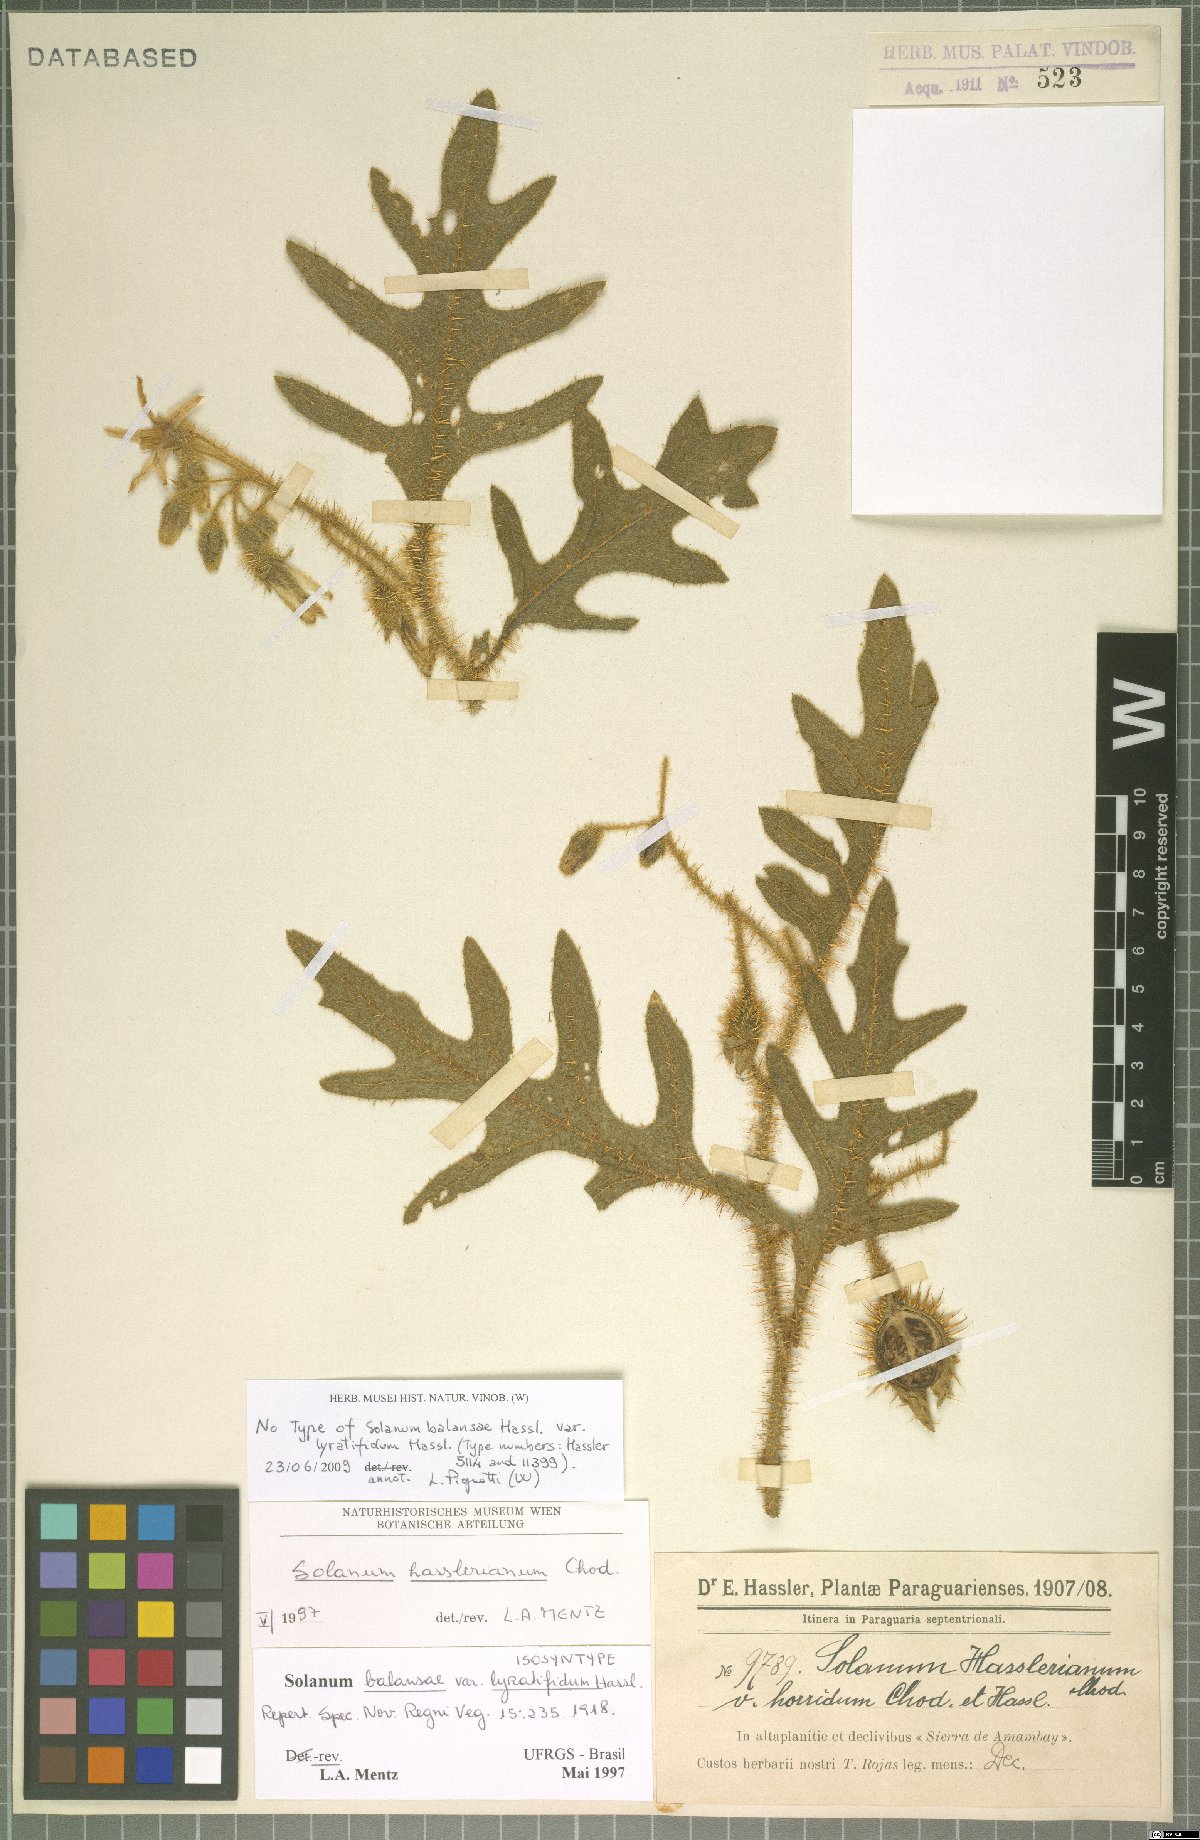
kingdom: Plantae
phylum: Tracheophyta
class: Magnoliopsida
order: Solanales
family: Solanaceae
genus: Solanum
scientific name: Solanum hasslerianum
